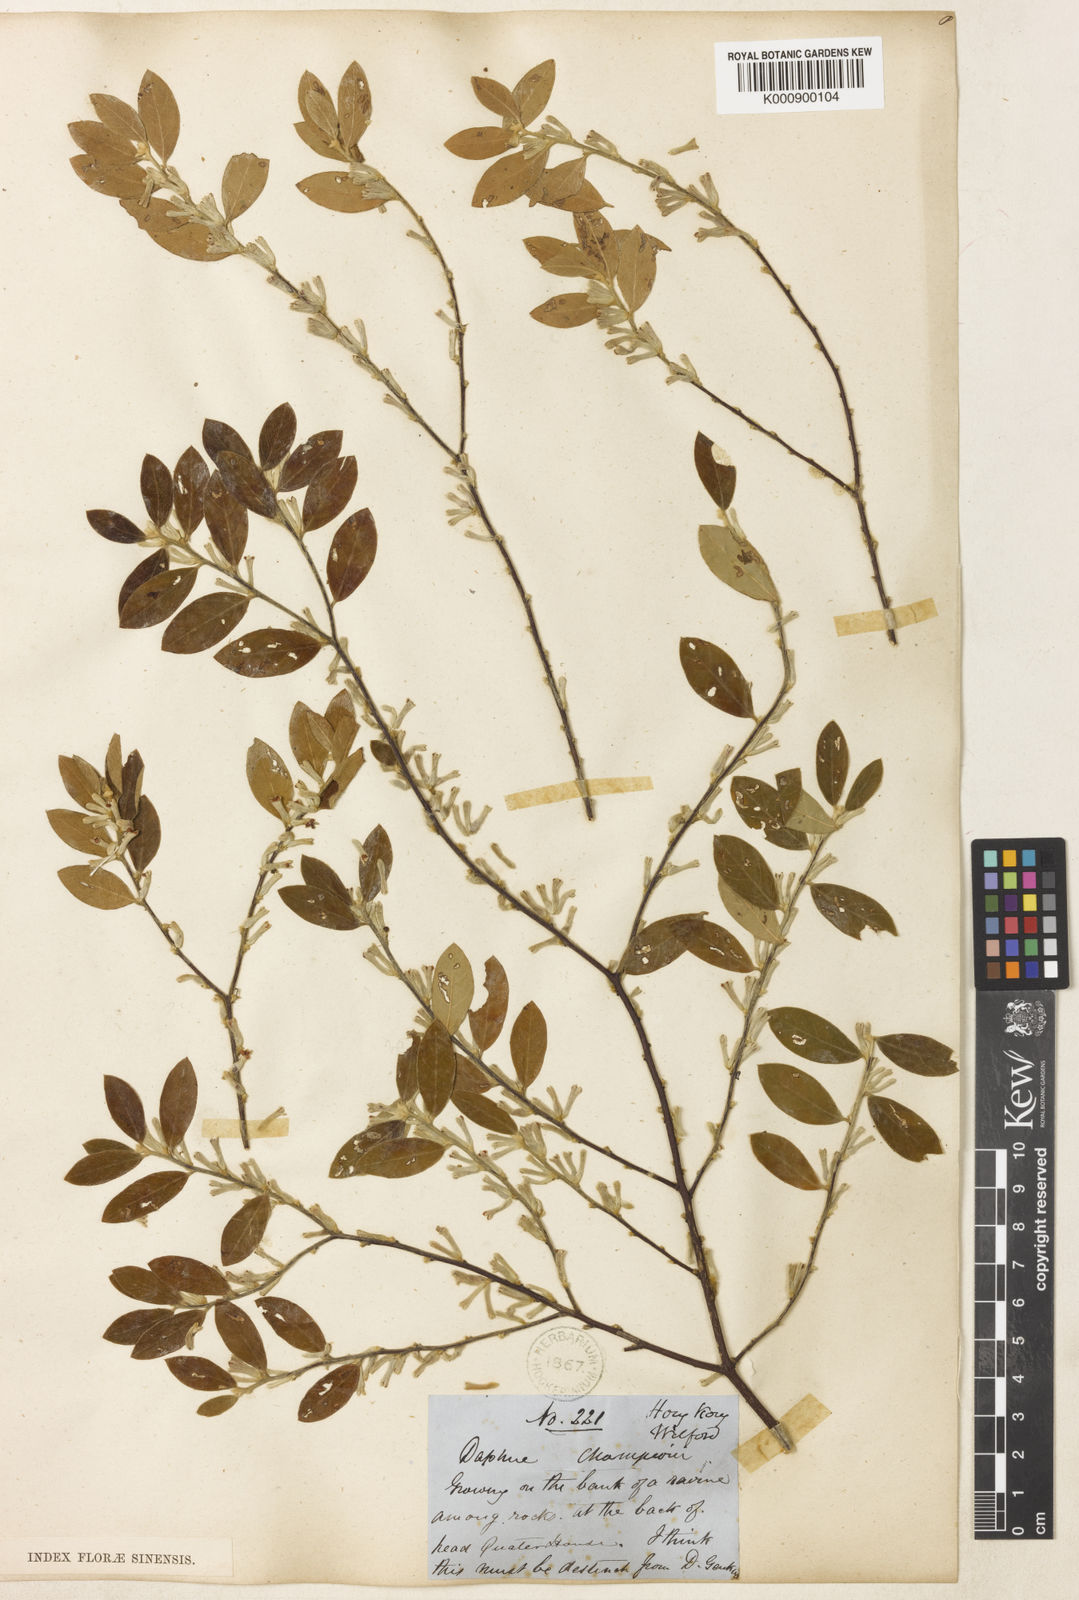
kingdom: Plantae
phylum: Tracheophyta
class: Magnoliopsida
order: Malvales
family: Thymelaeaceae
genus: Daphne
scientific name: Daphne championii
